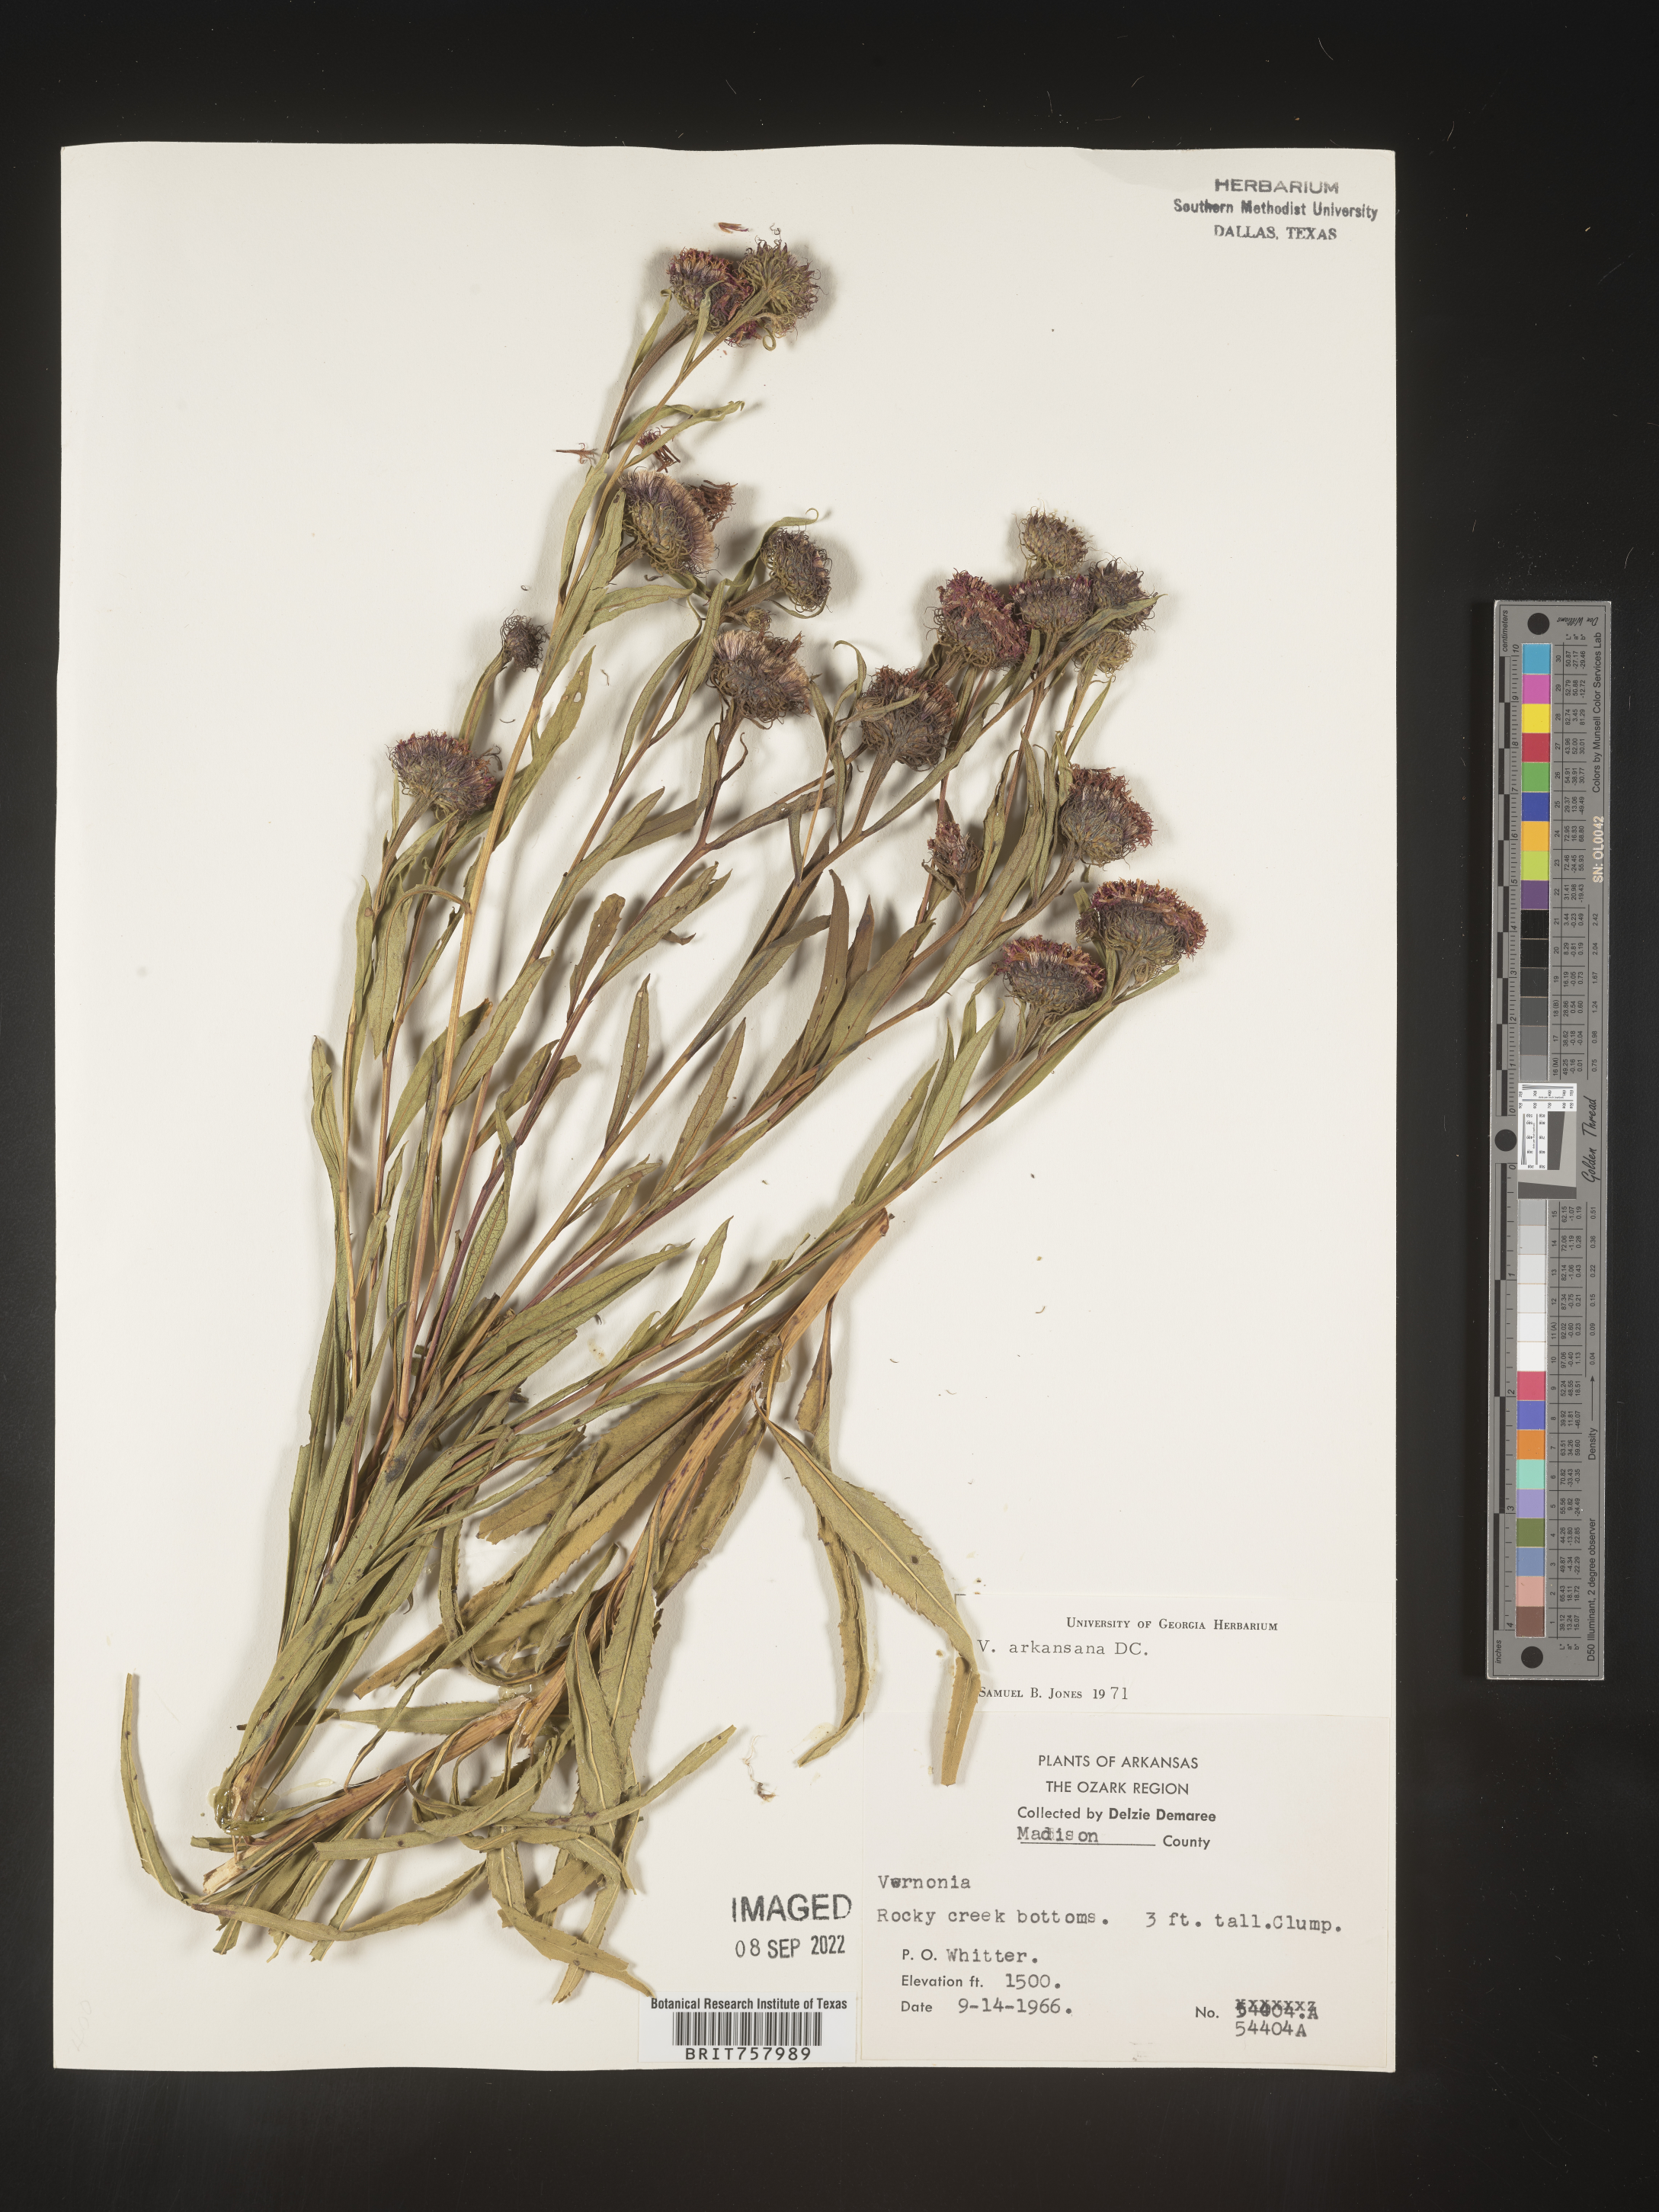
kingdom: Plantae
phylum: Tracheophyta
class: Magnoliopsida
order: Asterales
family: Asteraceae
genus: Vernonia
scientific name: Vernonia arkansana
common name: Ozark ironweed
